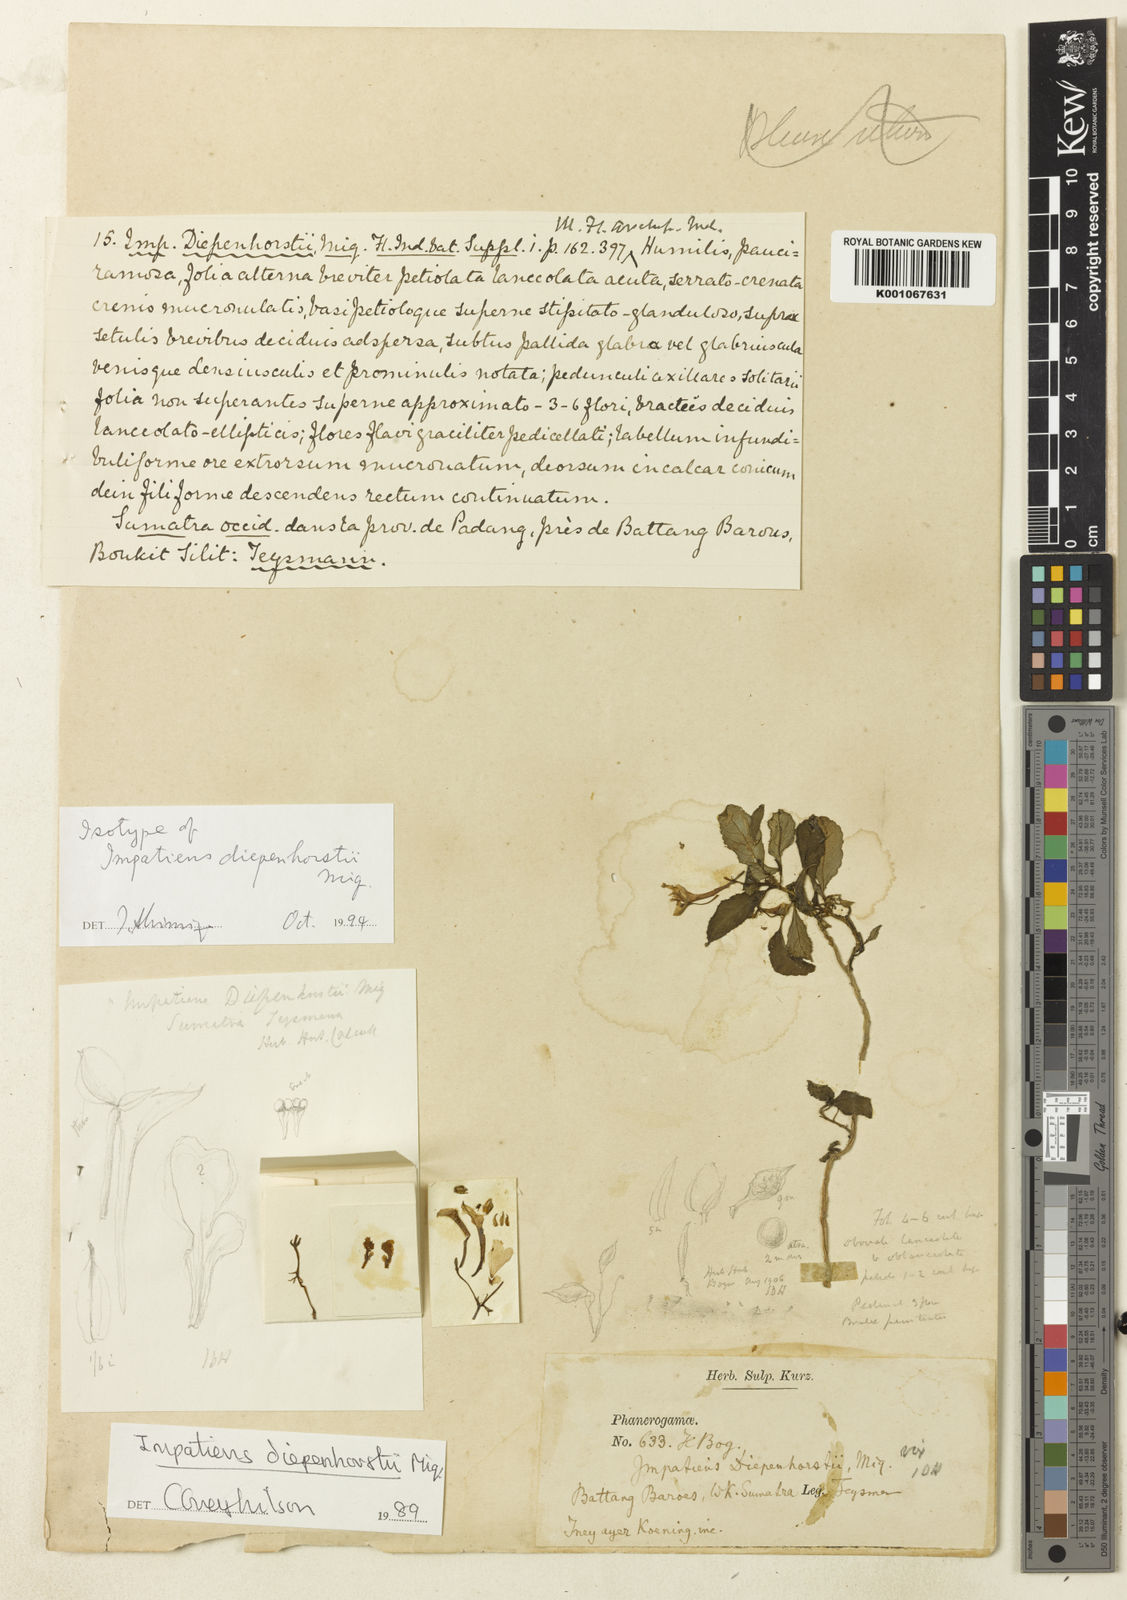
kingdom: Plantae
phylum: Tracheophyta
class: Magnoliopsida
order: Ericales
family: Balsaminaceae
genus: Impatiens
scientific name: Impatiens diepenhorstii
